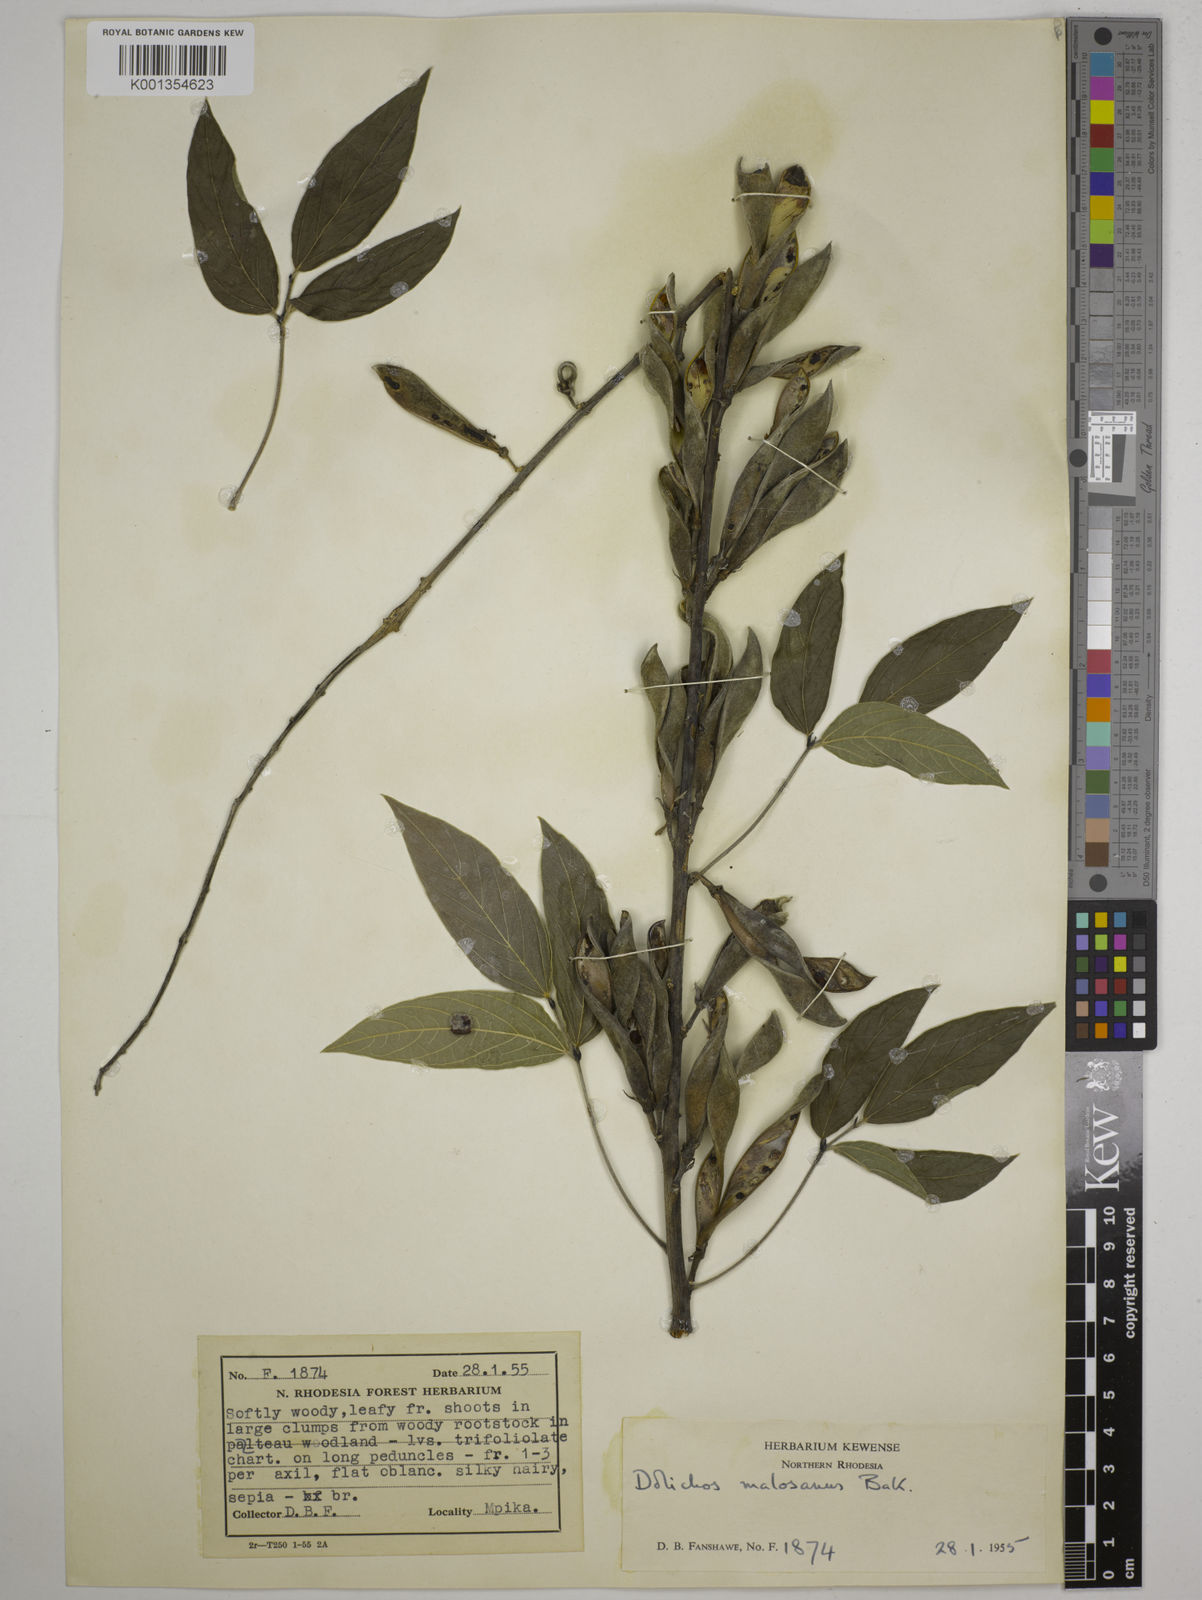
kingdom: Plantae
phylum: Tracheophyta
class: Magnoliopsida
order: Fabales
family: Fabaceae
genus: Dolichos
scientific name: Dolichos kilimandscharicus
